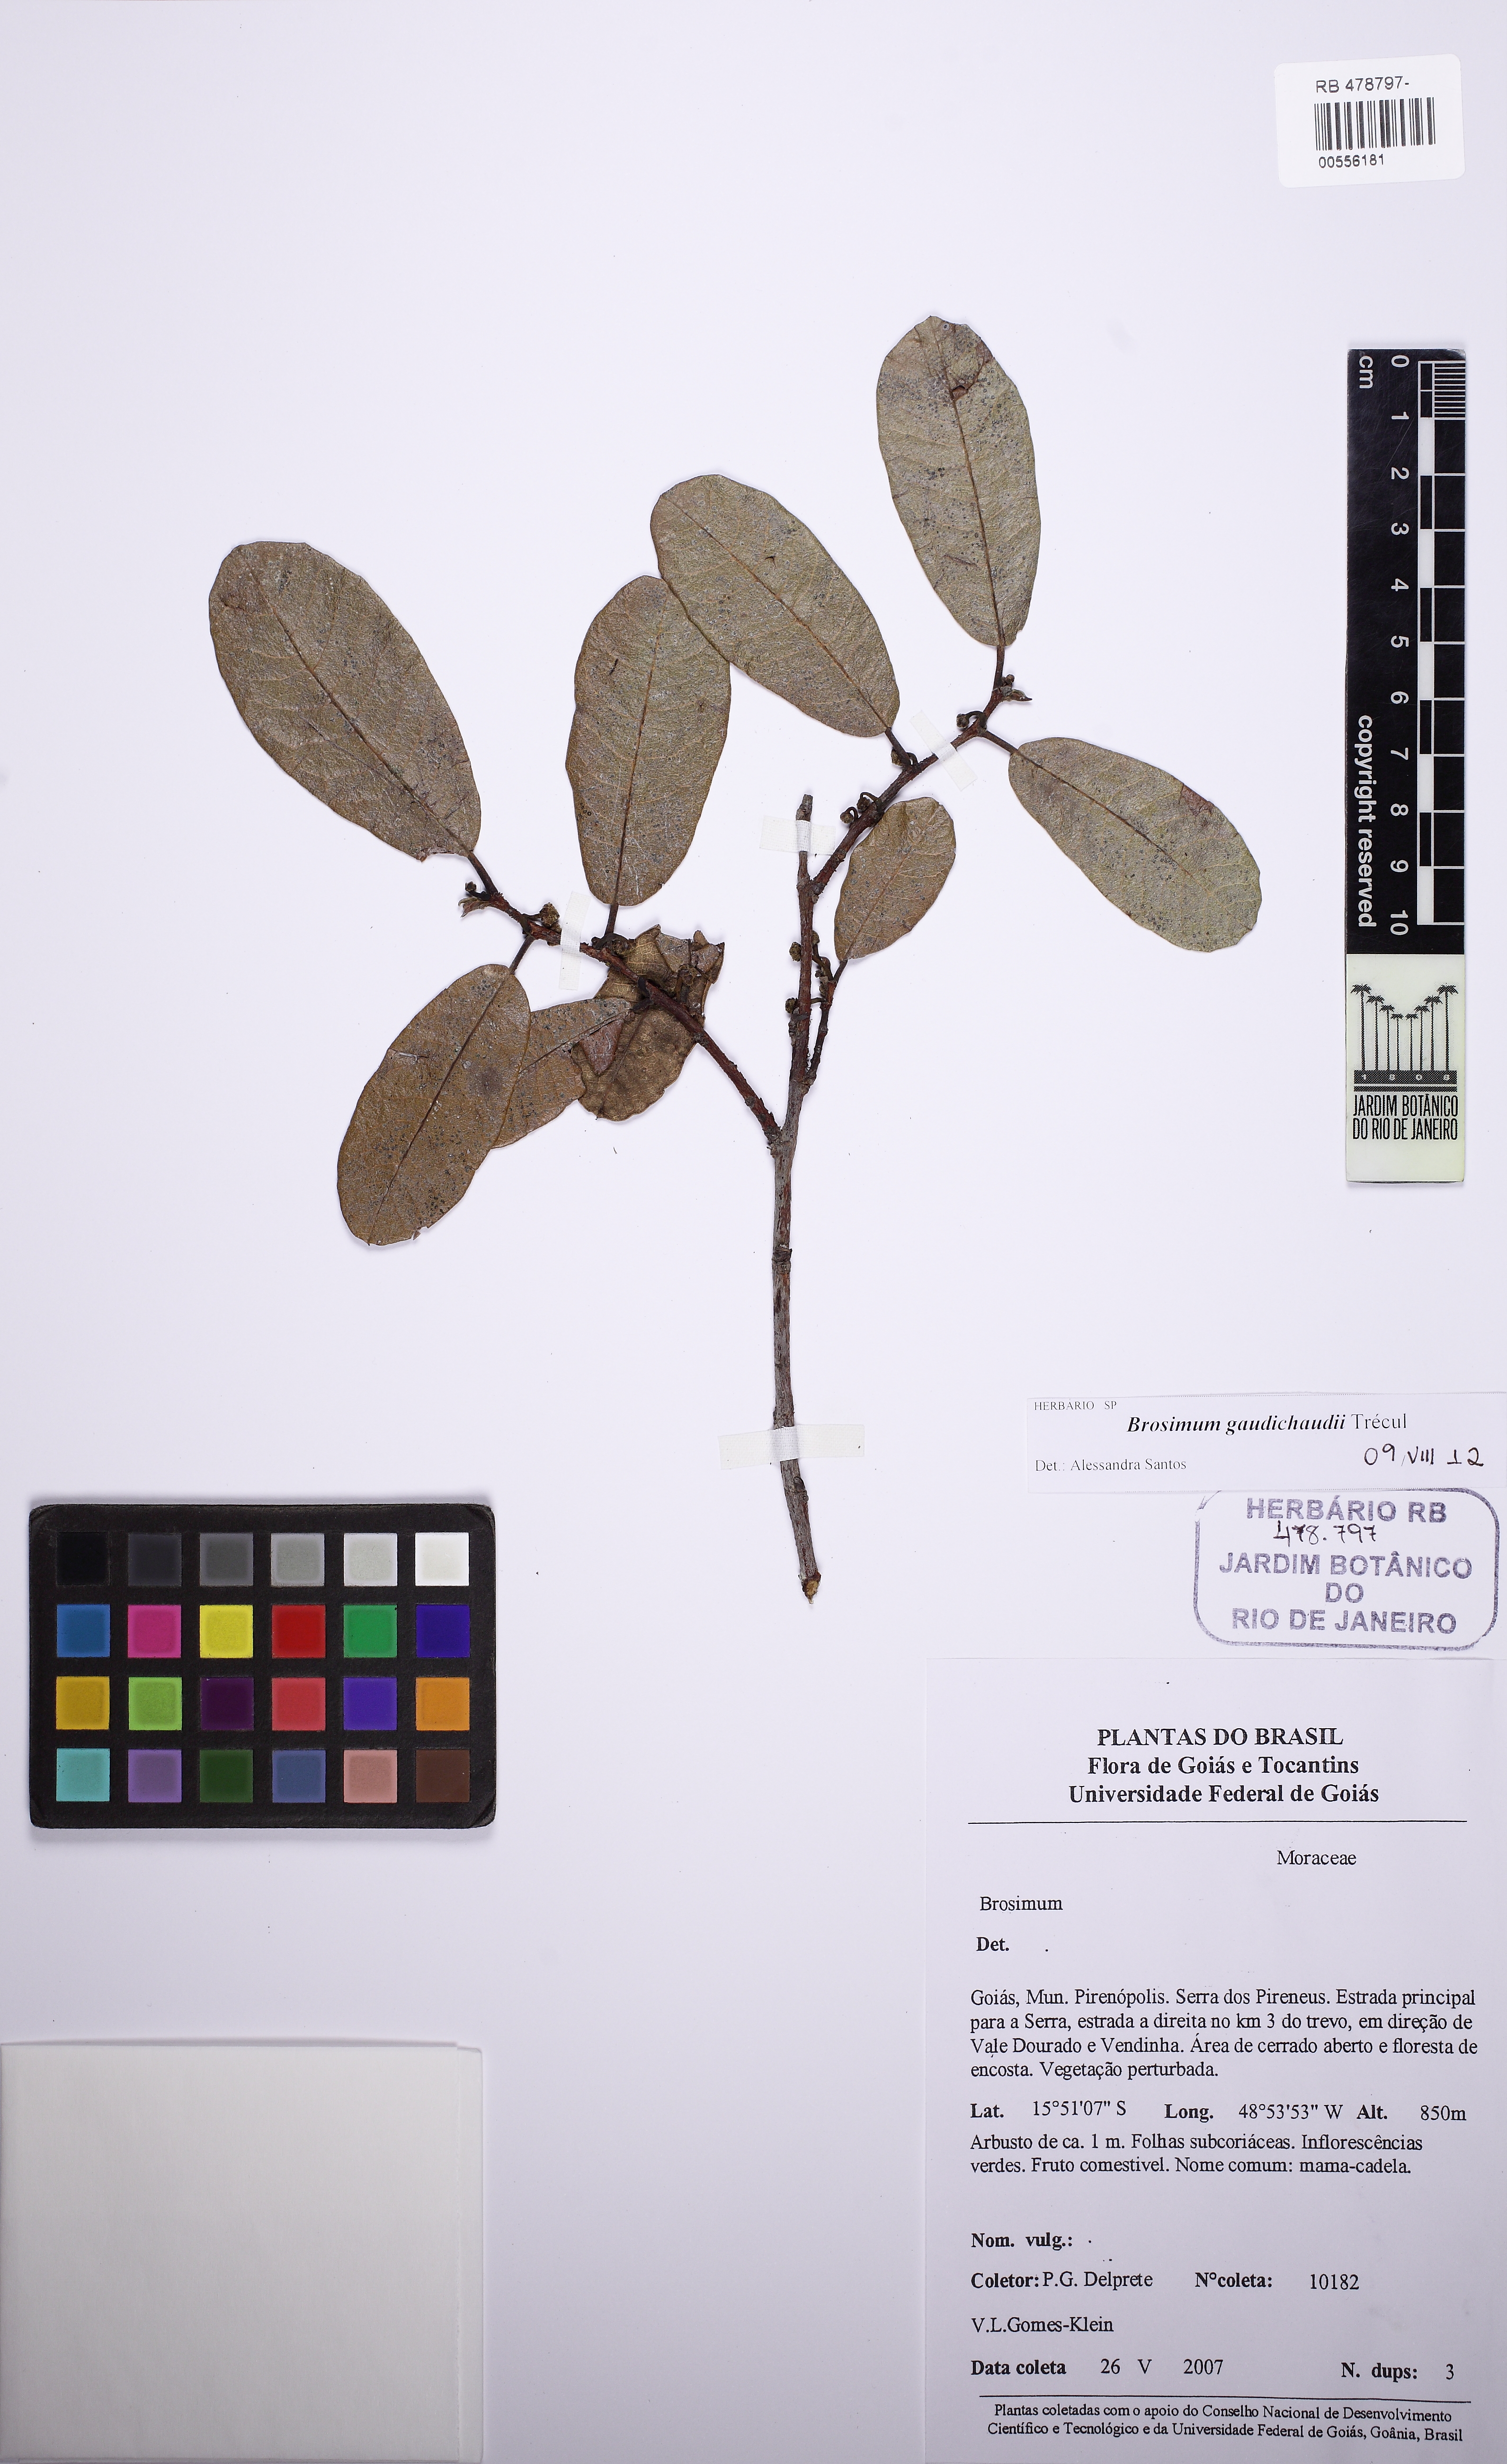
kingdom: Plantae
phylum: Tracheophyta
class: Magnoliopsida
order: Rosales
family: Moraceae
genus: Brosimum
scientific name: Brosimum gaudichaudii
